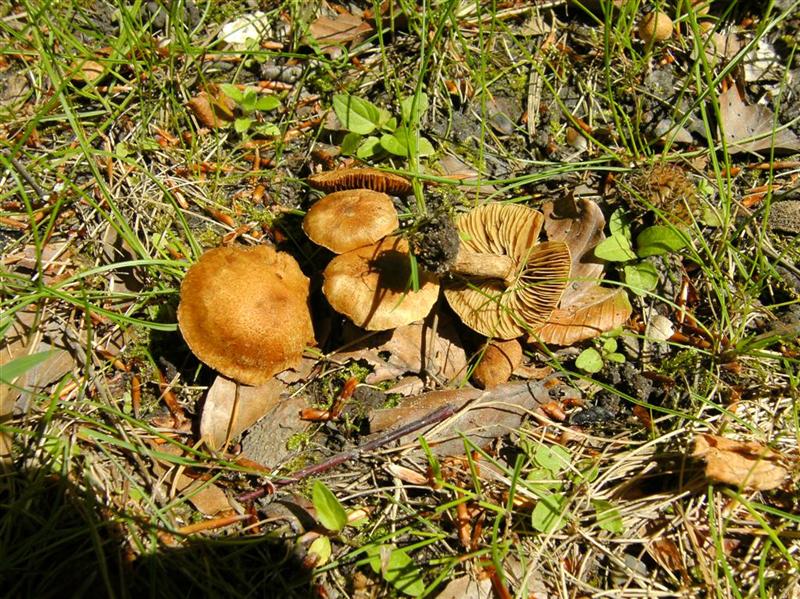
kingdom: Fungi
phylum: Basidiomycota
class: Agaricomycetes
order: Agaricales
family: Inocybaceae
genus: Inocybe
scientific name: Inocybe dulcamara
